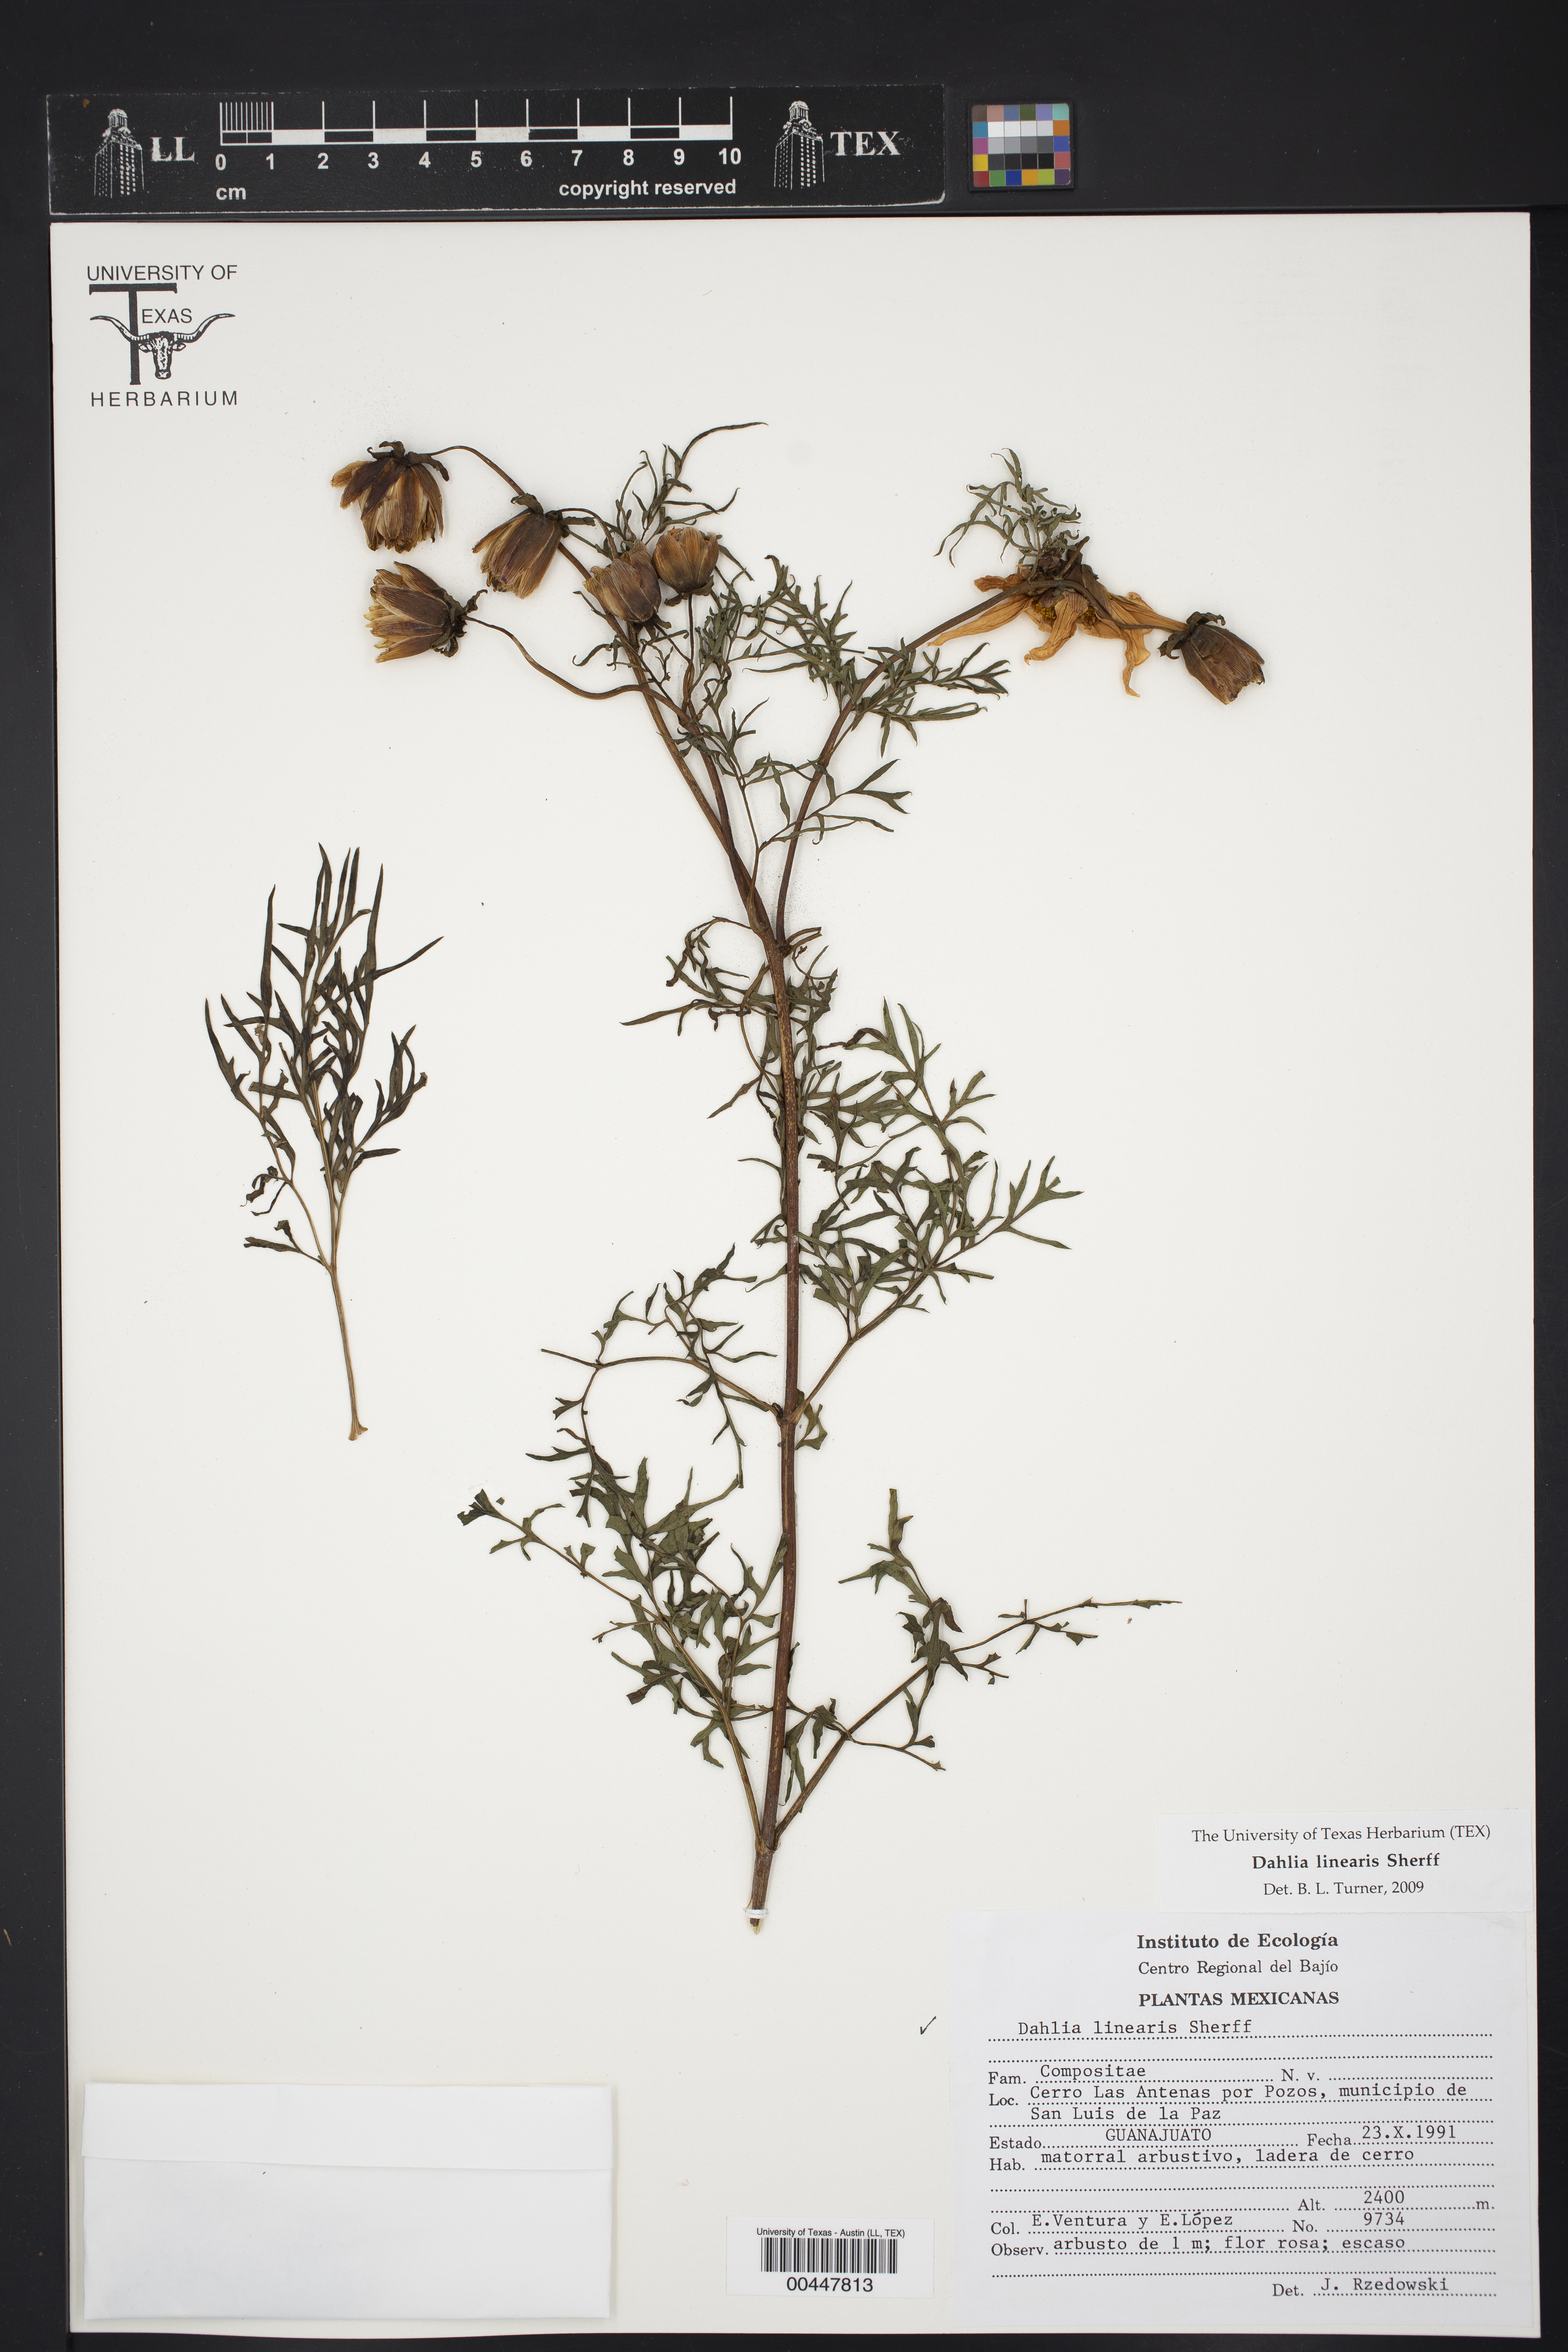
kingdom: Plantae
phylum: Tracheophyta
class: Magnoliopsida
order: Asterales
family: Asteraceae
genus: Dahlia
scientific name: Dahlia linearis
